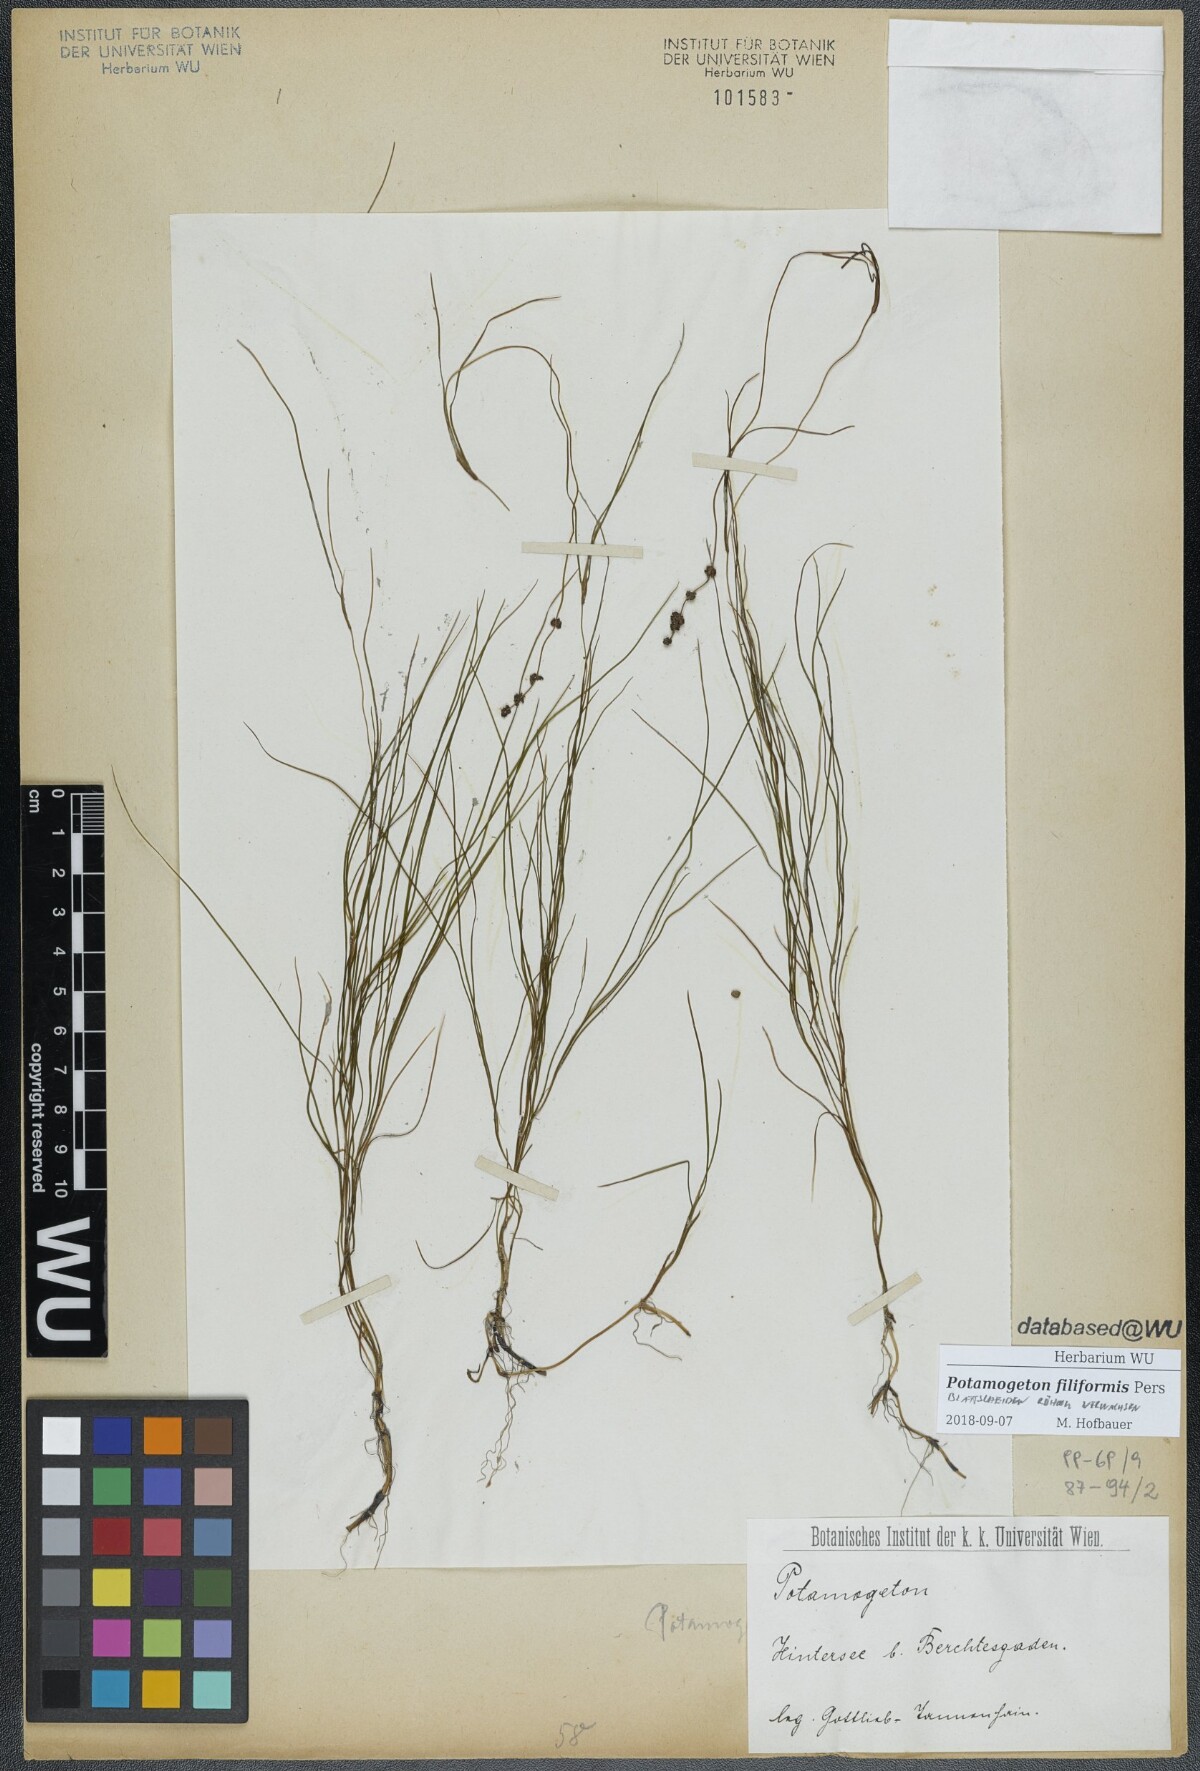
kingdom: Plantae
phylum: Tracheophyta
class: Liliopsida
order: Alismatales
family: Potamogetonaceae
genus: Stuckenia
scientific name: Stuckenia filiformis
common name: Alpine thread-leaved pondweed
